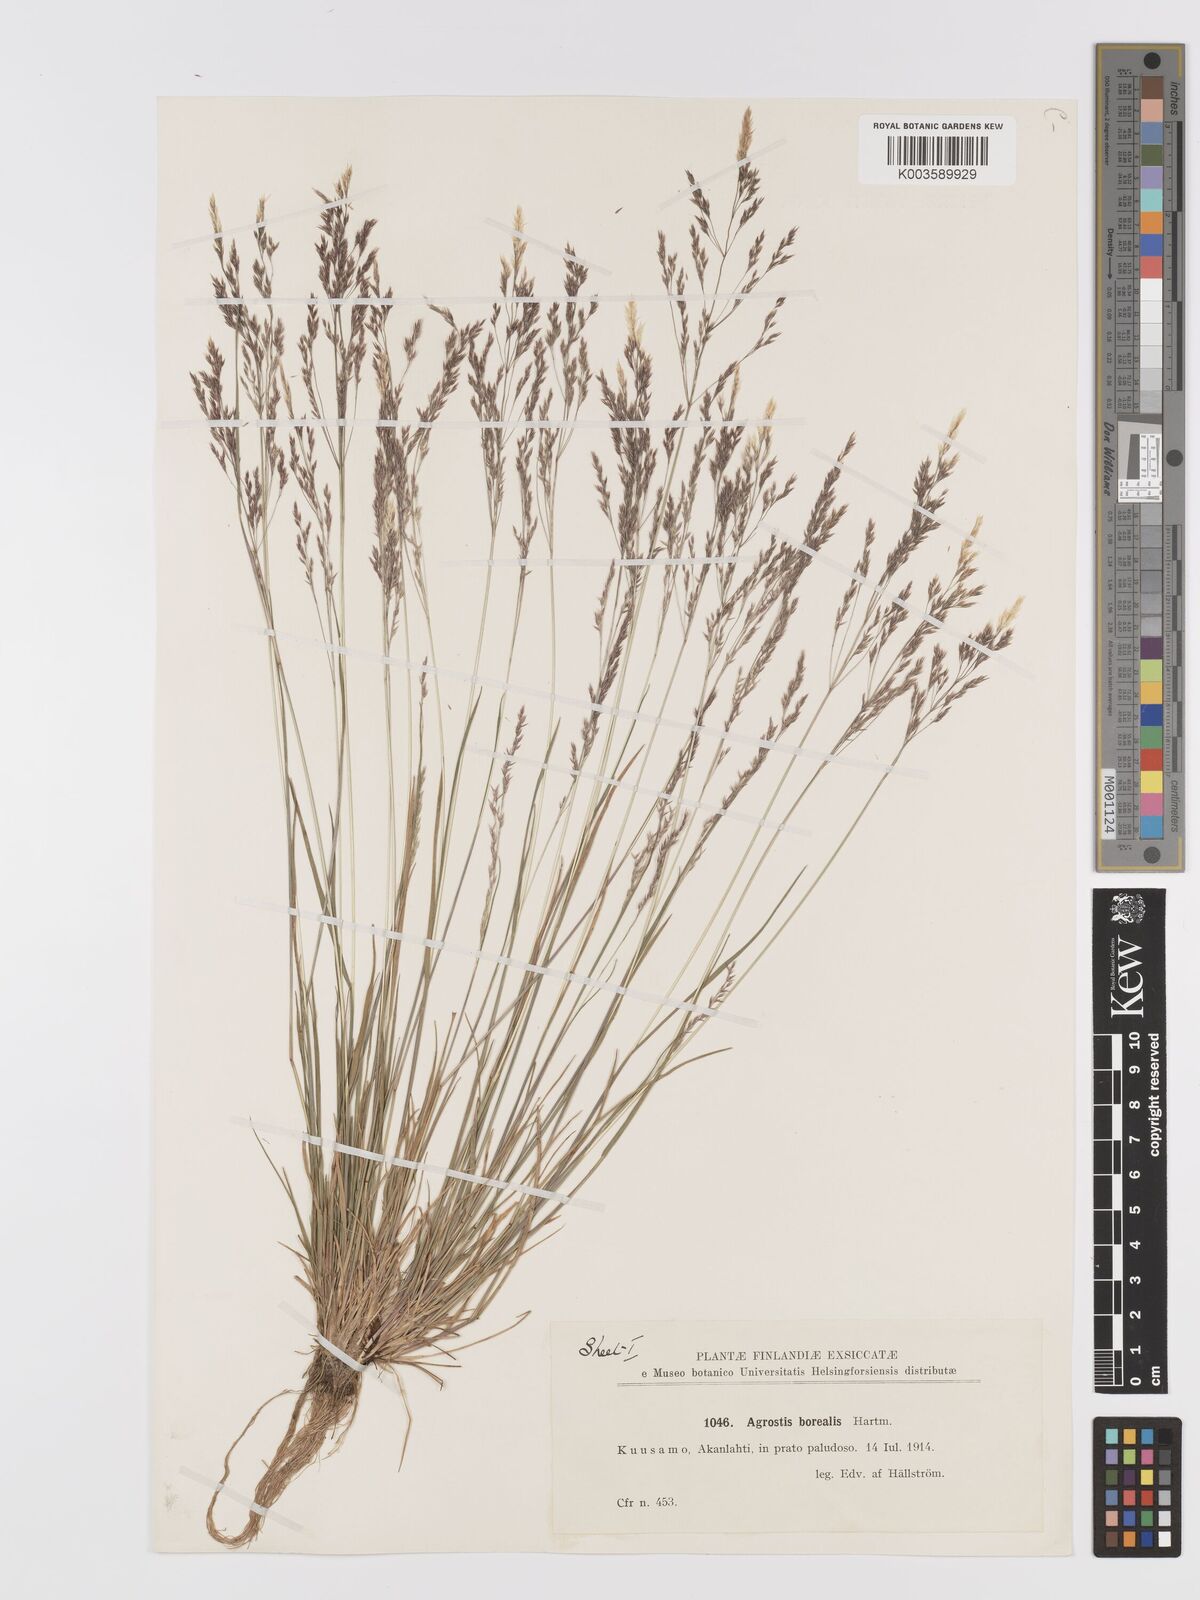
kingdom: Plantae
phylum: Tracheophyta
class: Liliopsida
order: Poales
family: Poaceae
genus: Agrostis
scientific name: Agrostis mertensii
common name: Northern bent
